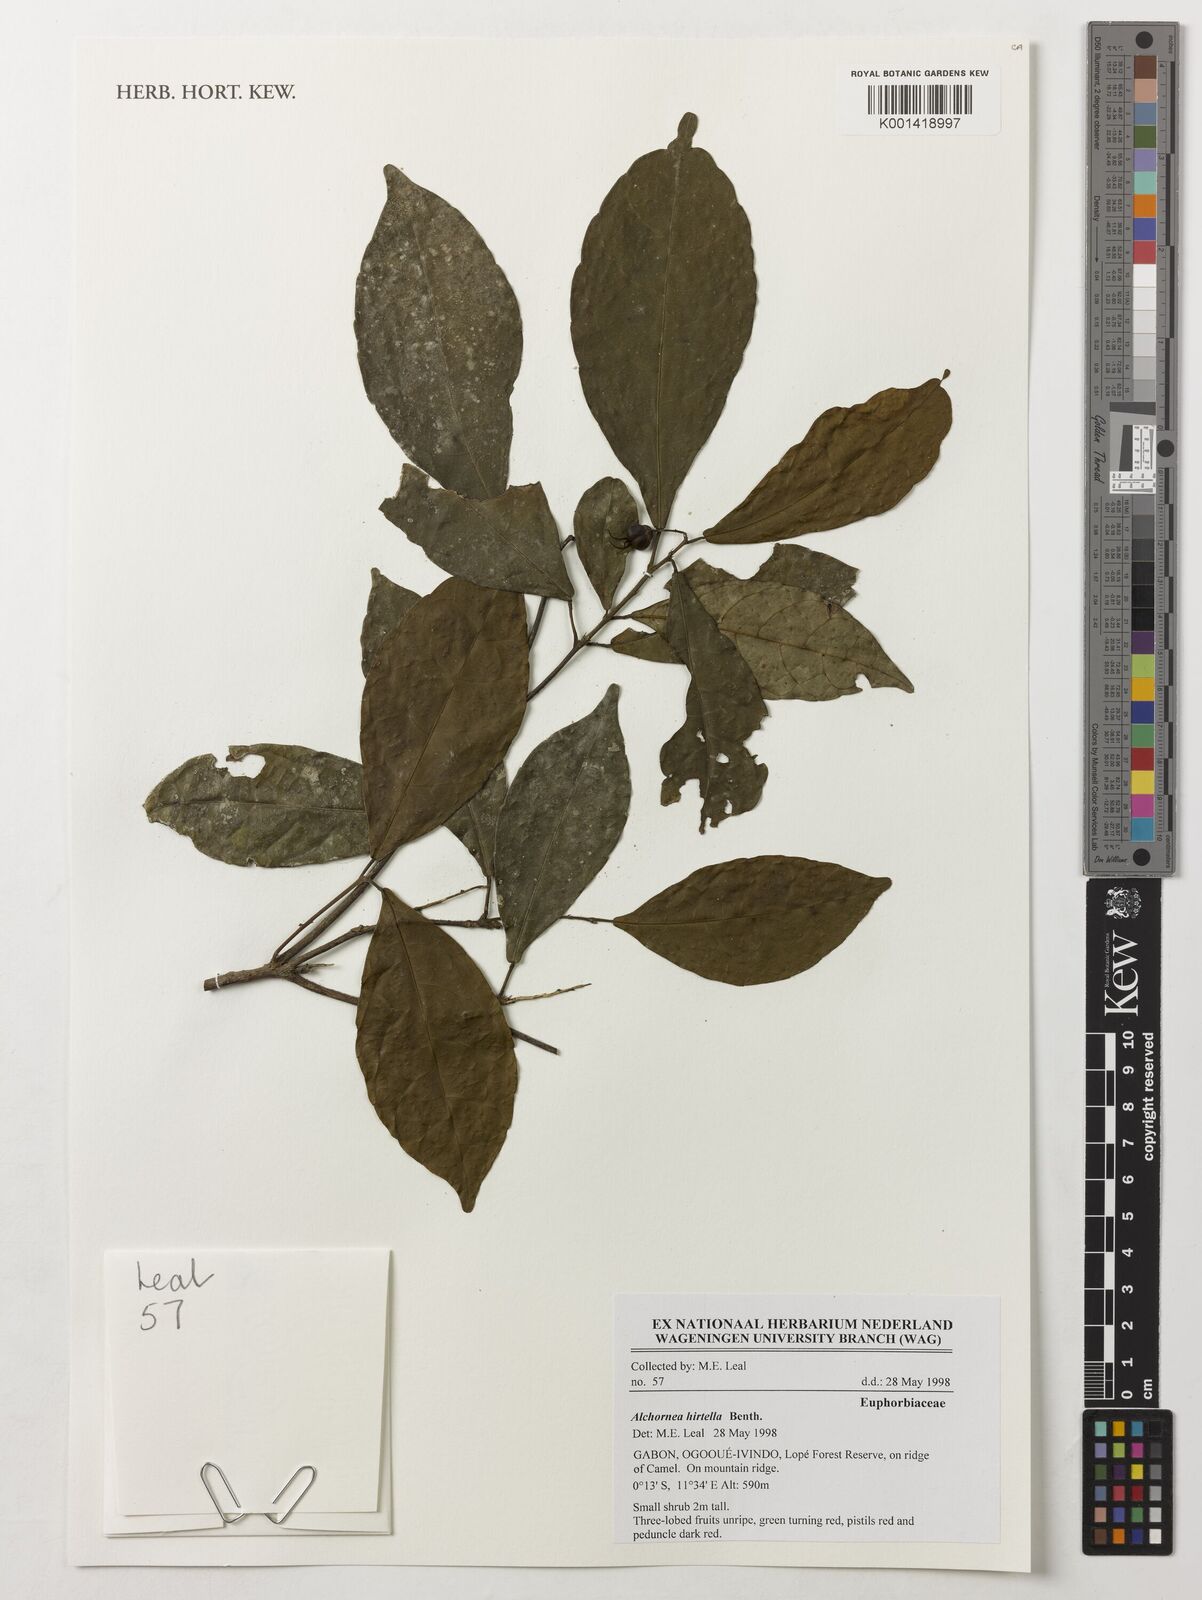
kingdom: Plantae
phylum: Tracheophyta
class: Magnoliopsida
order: Malpighiales
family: Euphorbiaceae
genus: Alchornea
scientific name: Alchornea hirtella
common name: Forest bead-string
